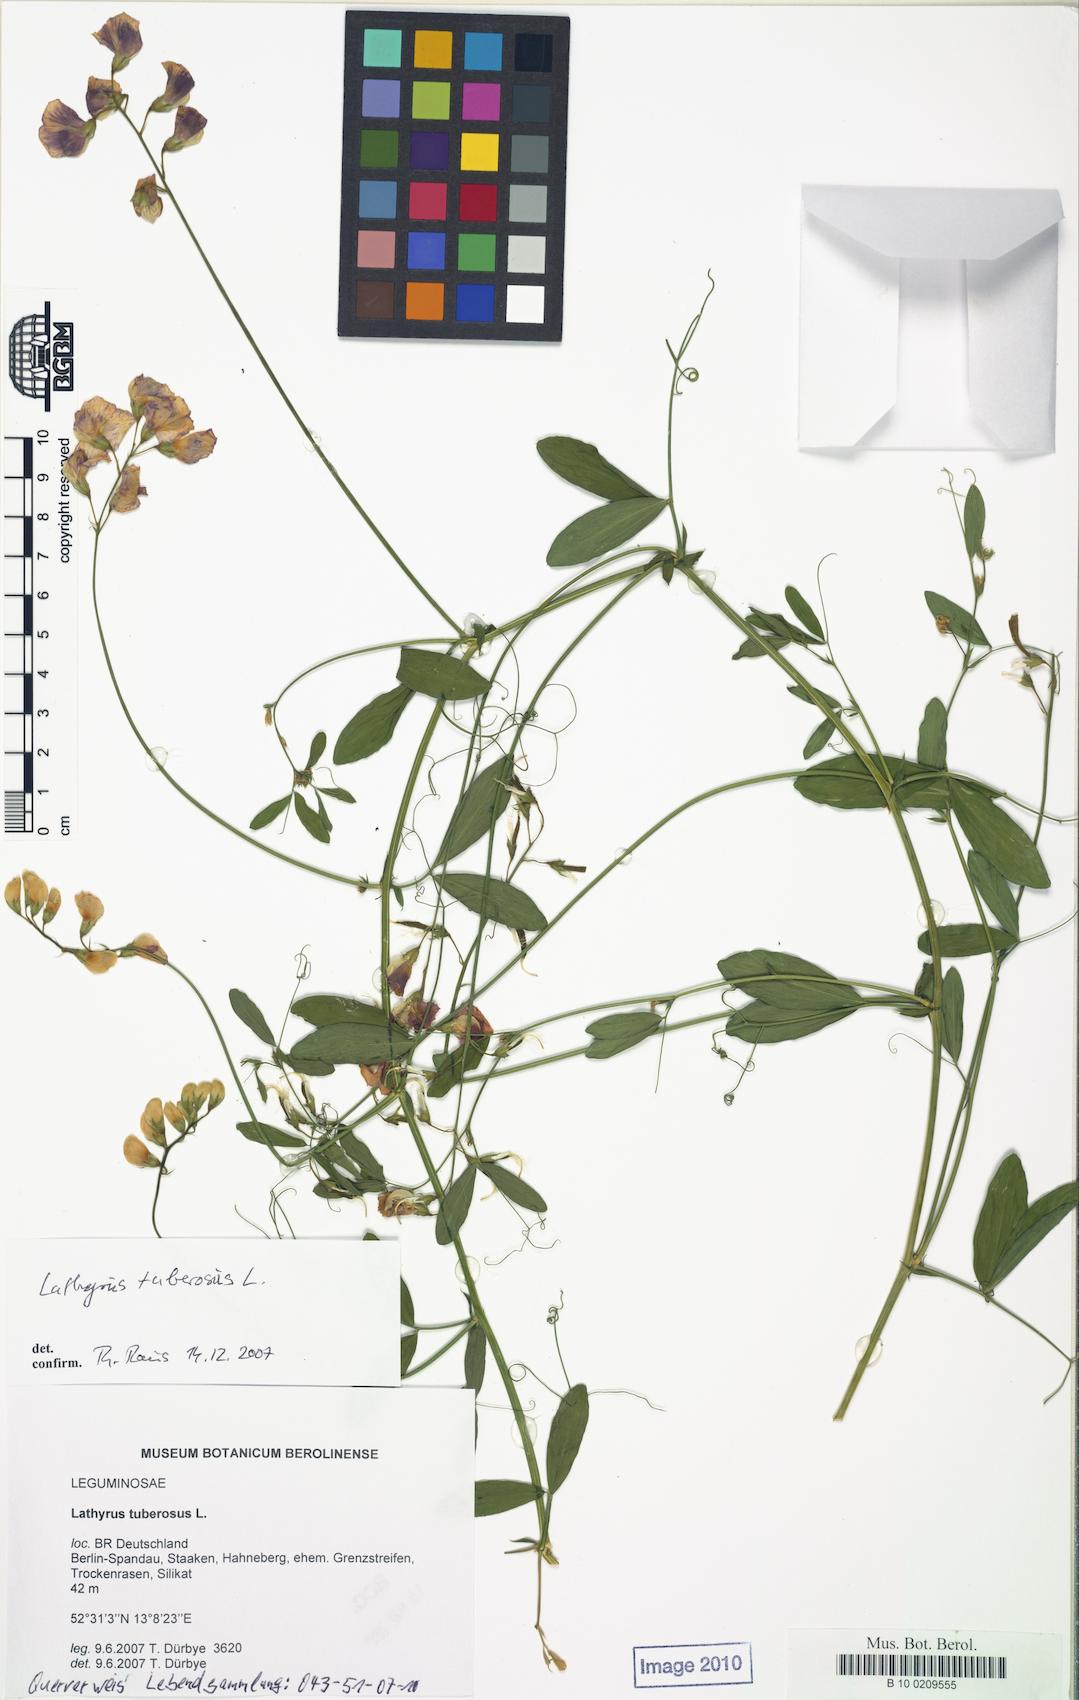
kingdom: Plantae
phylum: Tracheophyta
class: Magnoliopsida
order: Fabales
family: Fabaceae
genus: Lathyrus
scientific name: Lathyrus tuberosus
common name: Tuberous pea
